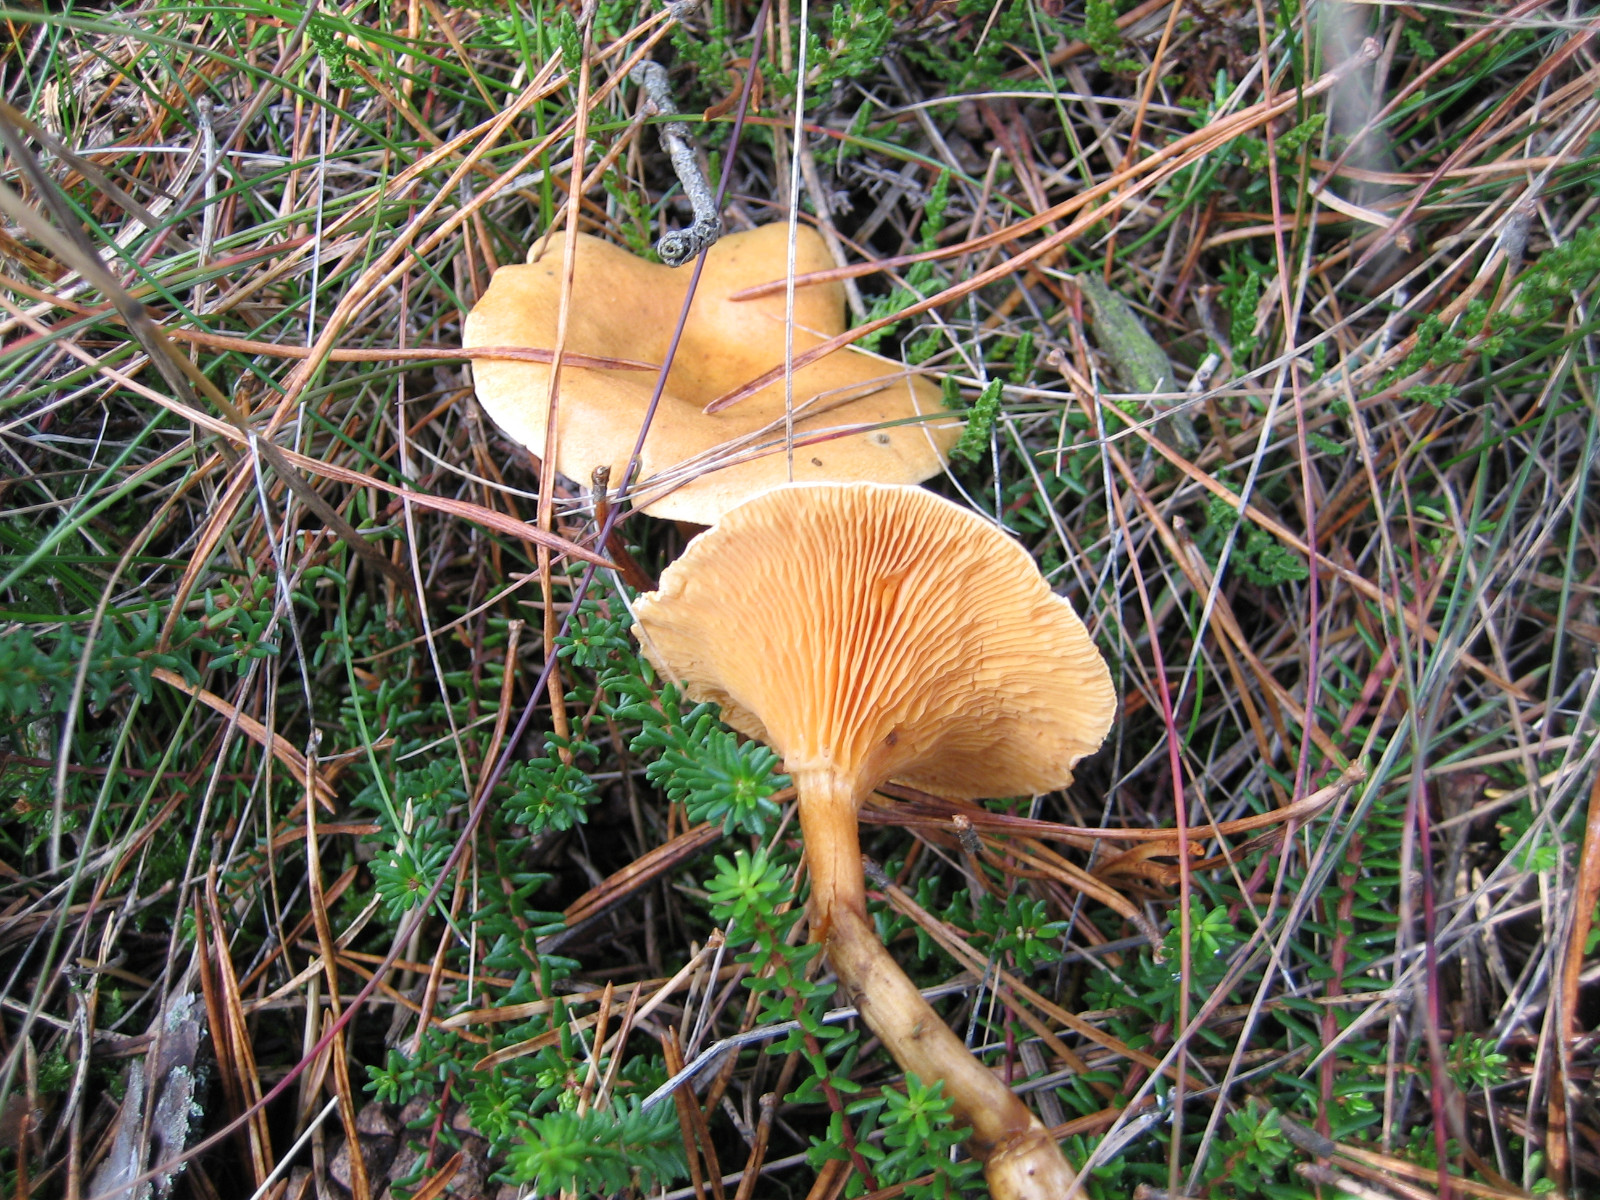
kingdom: Fungi
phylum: Basidiomycota
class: Agaricomycetes
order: Boletales
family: Hygrophoropsidaceae
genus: Hygrophoropsis
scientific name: Hygrophoropsis aurantiaca
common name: almindelig orangekantarel
